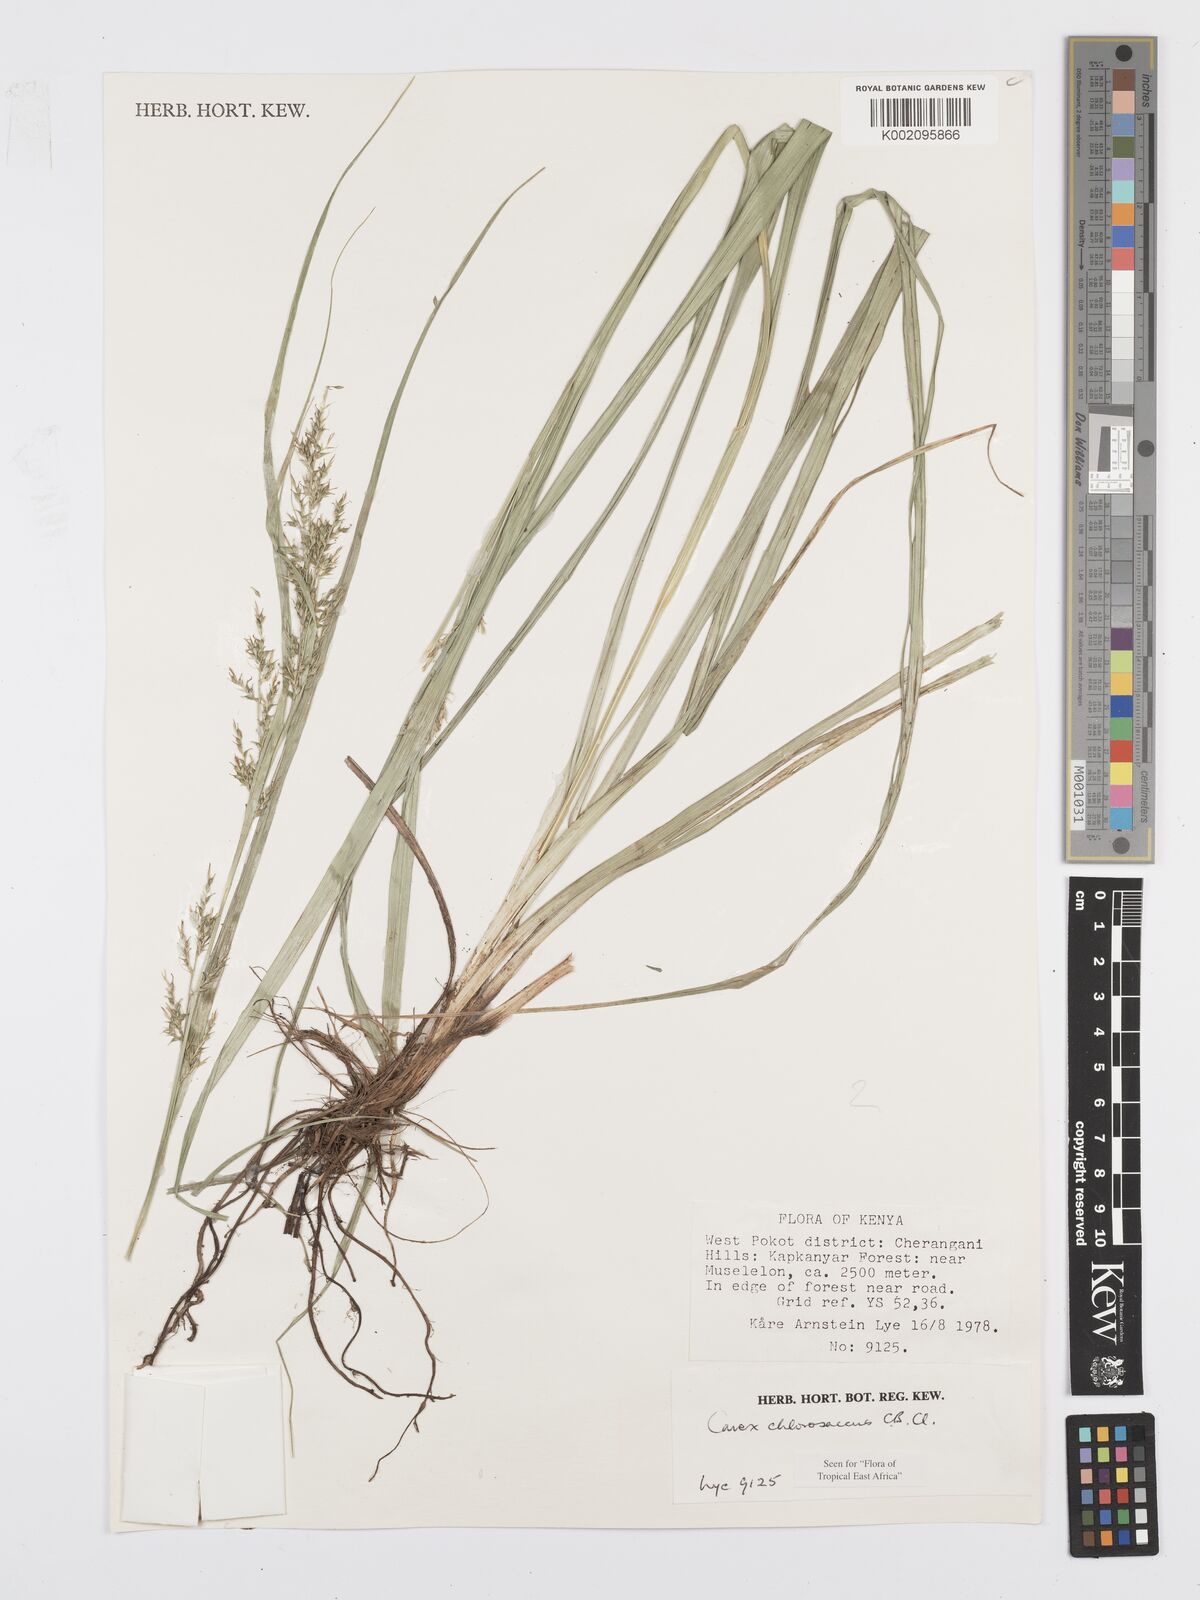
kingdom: Plantae
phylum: Tracheophyta
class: Liliopsida
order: Poales
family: Cyperaceae
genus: Carex
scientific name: Carex chlorosaccus
